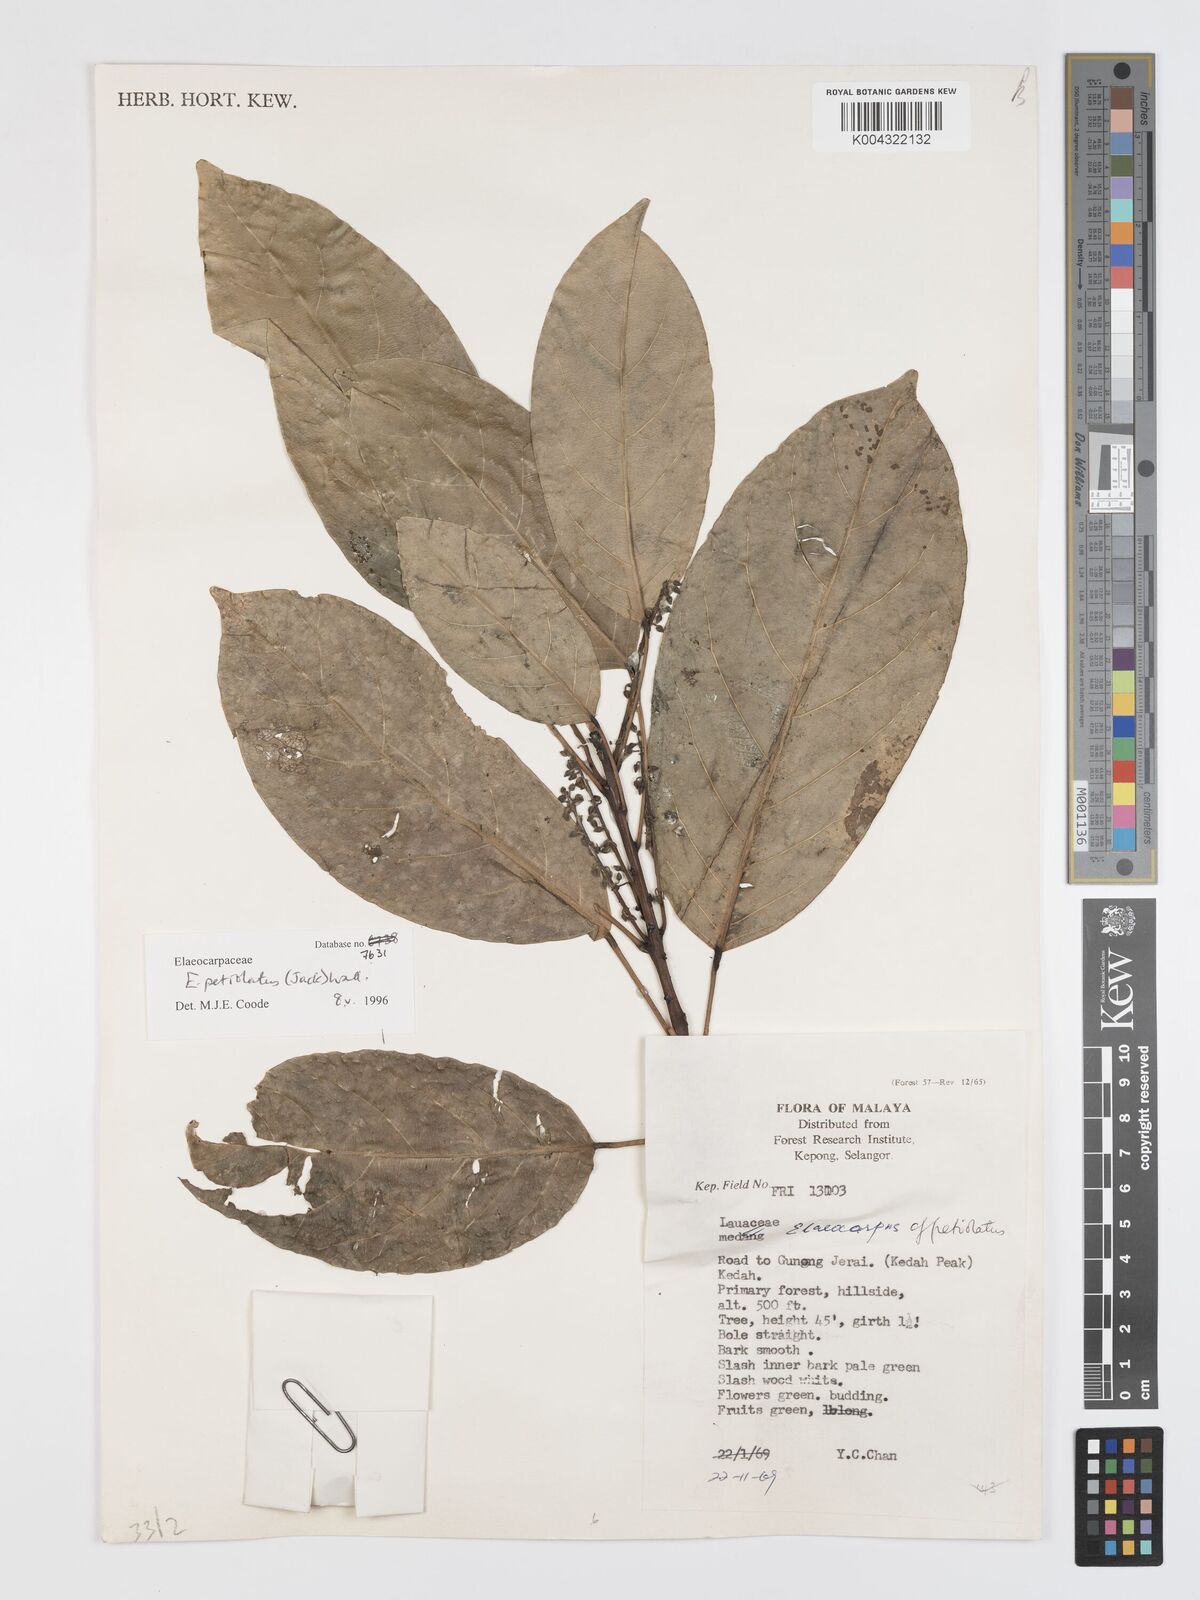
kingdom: Plantae
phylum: Tracheophyta
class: Magnoliopsida
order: Oxalidales
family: Elaeocarpaceae
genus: Elaeocarpus
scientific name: Elaeocarpus petiolatus
